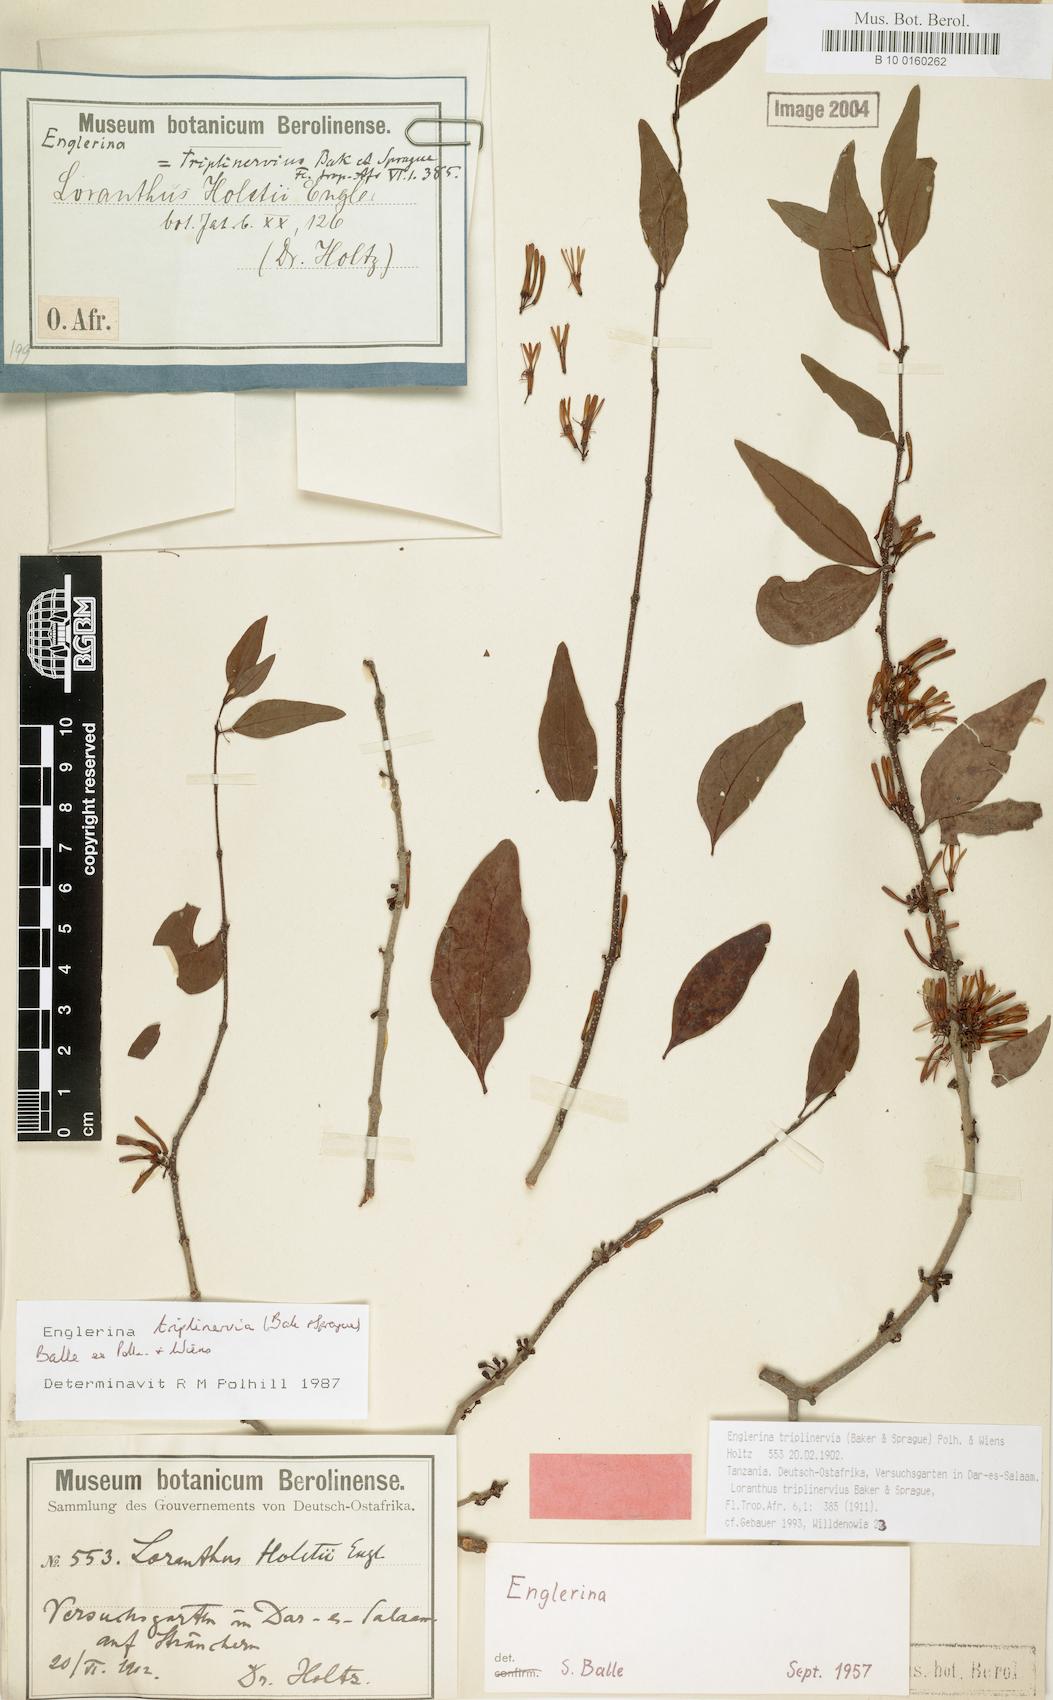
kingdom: Plantae
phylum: Tracheophyta
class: Magnoliopsida
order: Santalales
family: Loranthaceae
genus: Englerina
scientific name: Englerina triplinervia
